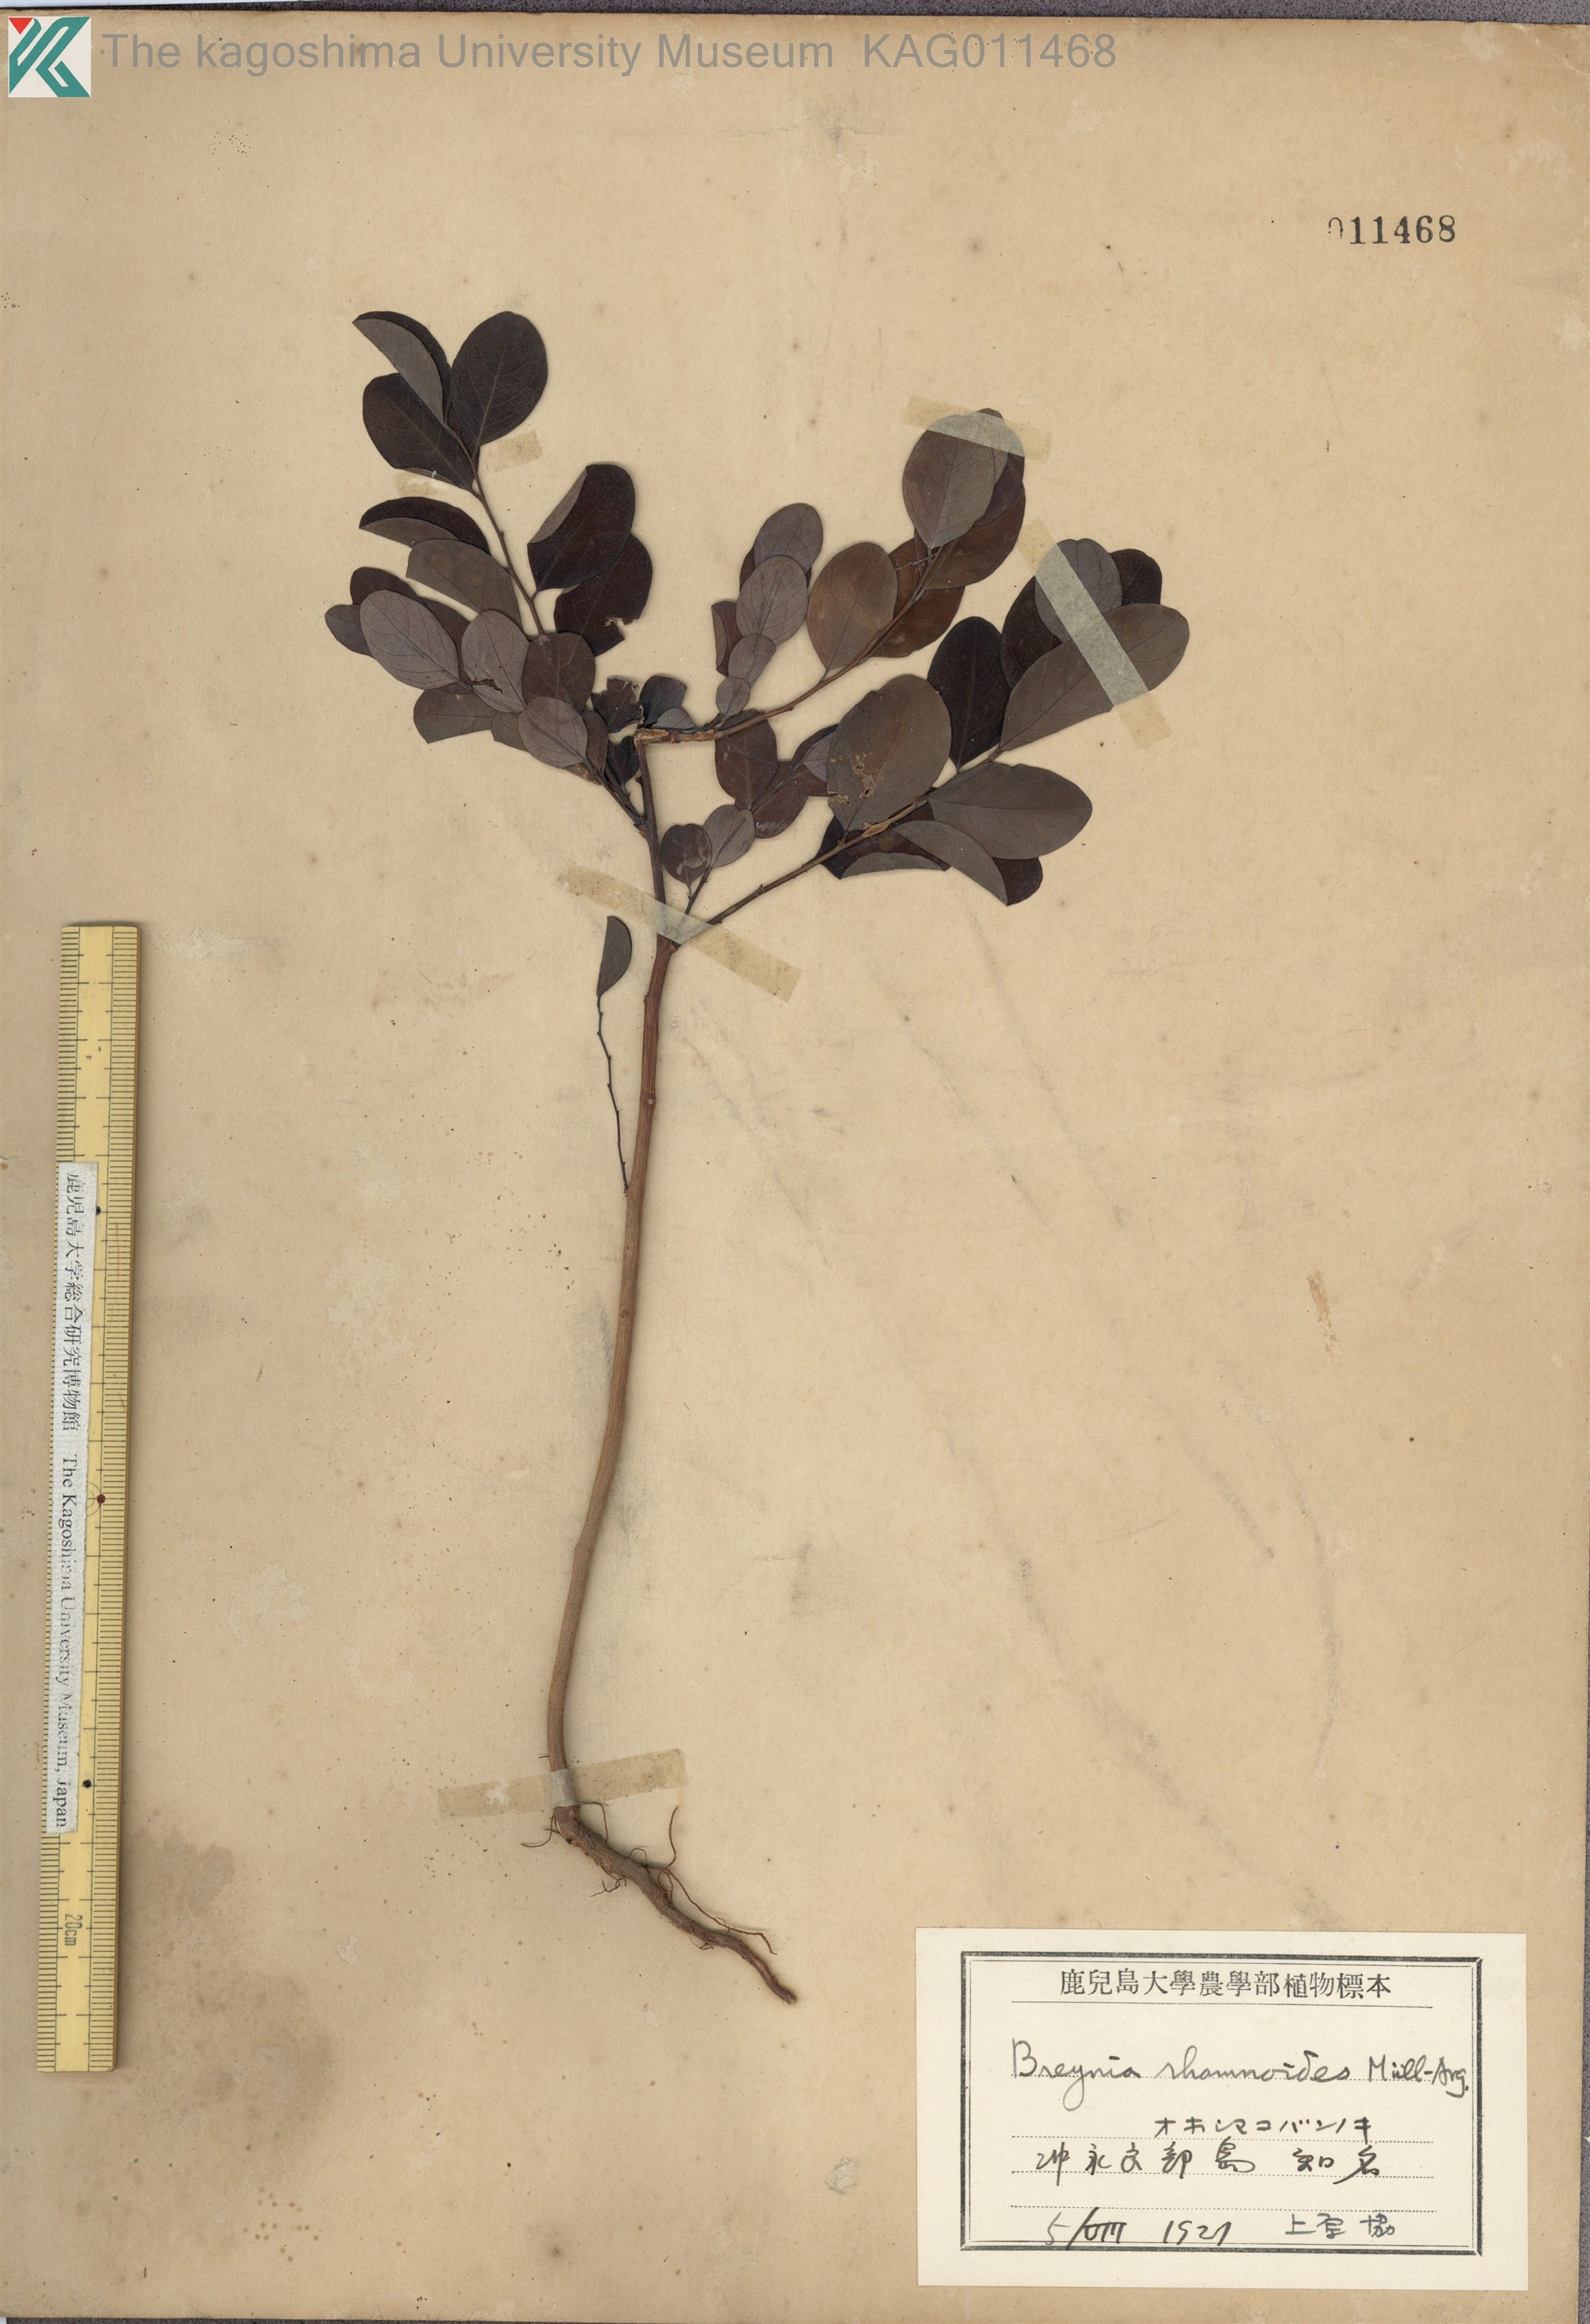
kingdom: Plantae
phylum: Tracheophyta
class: Magnoliopsida
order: Malpighiales
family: Phyllanthaceae
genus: Breynia
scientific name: Breynia vitis-idaea
